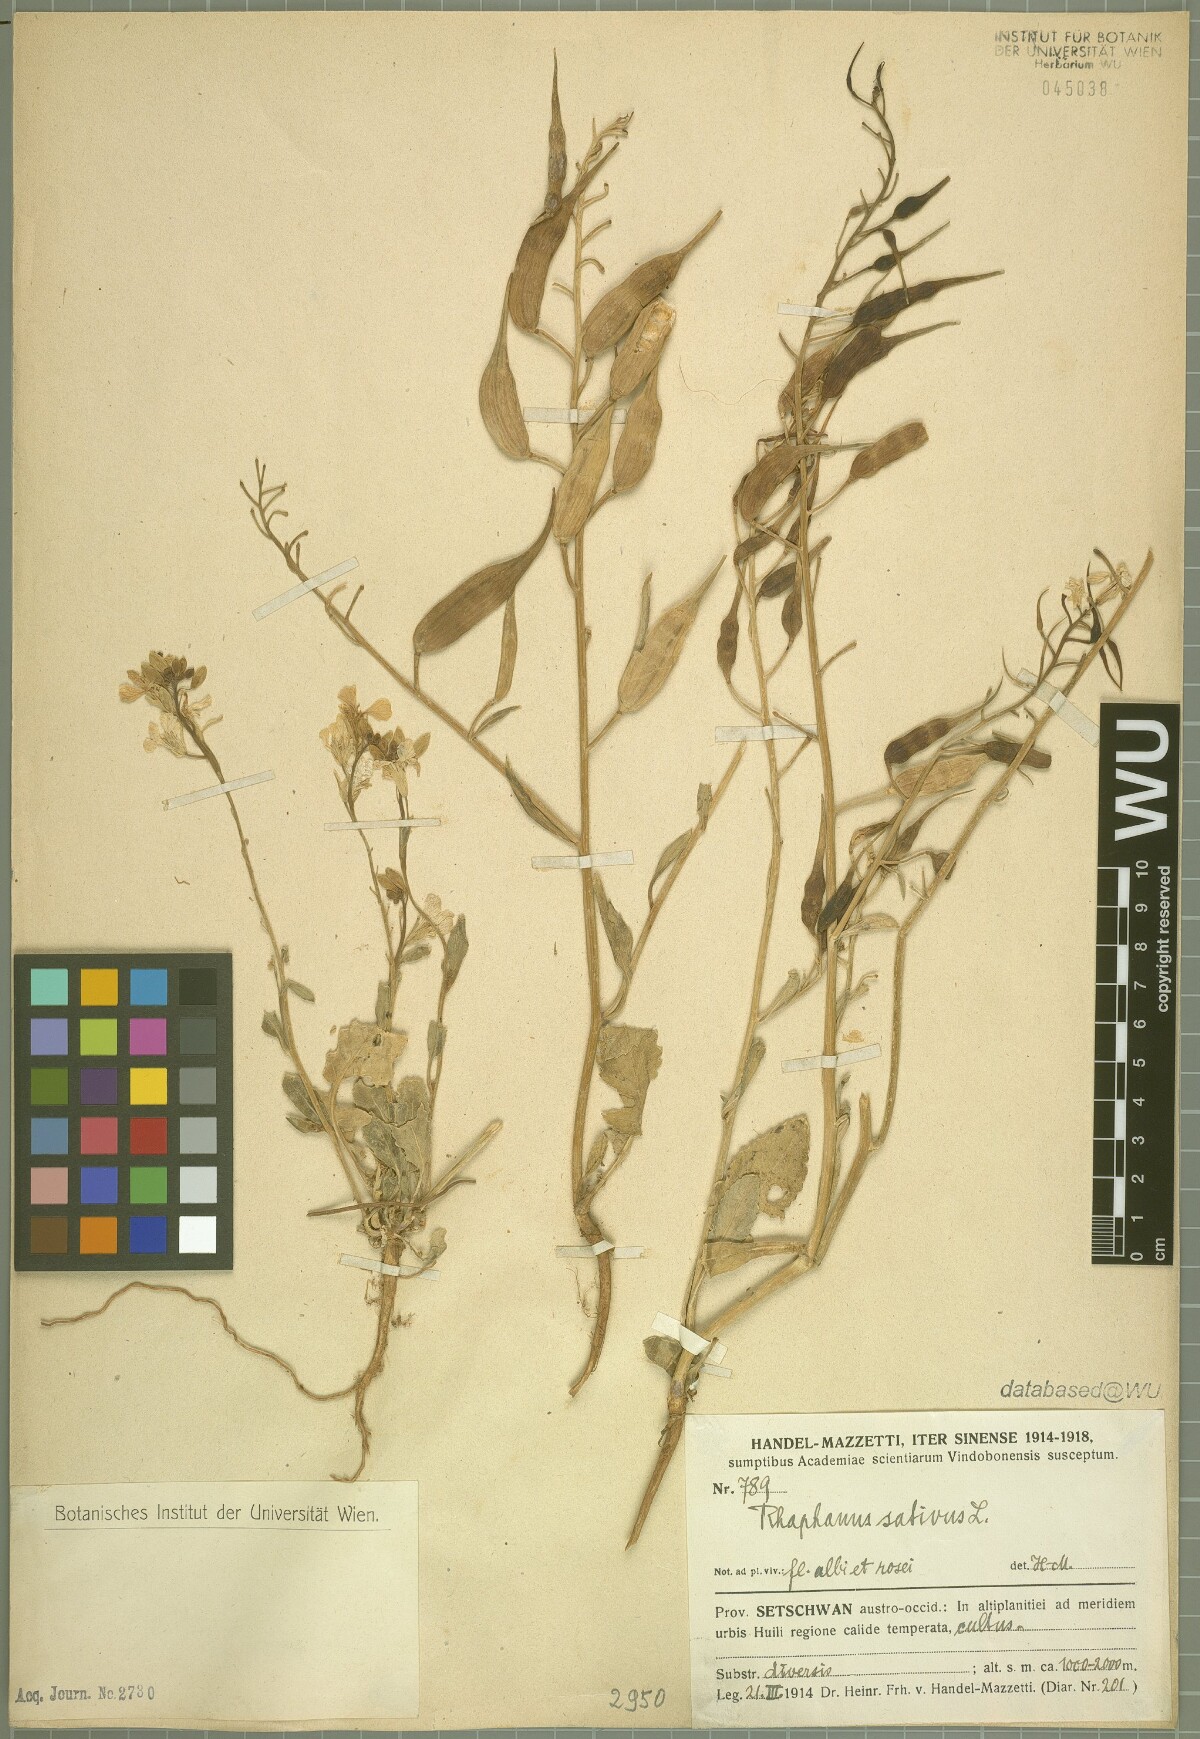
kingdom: Plantae
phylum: Tracheophyta
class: Magnoliopsida
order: Brassicales
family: Brassicaceae
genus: Raphanus
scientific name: Raphanus sativus
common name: Cultivated radish
